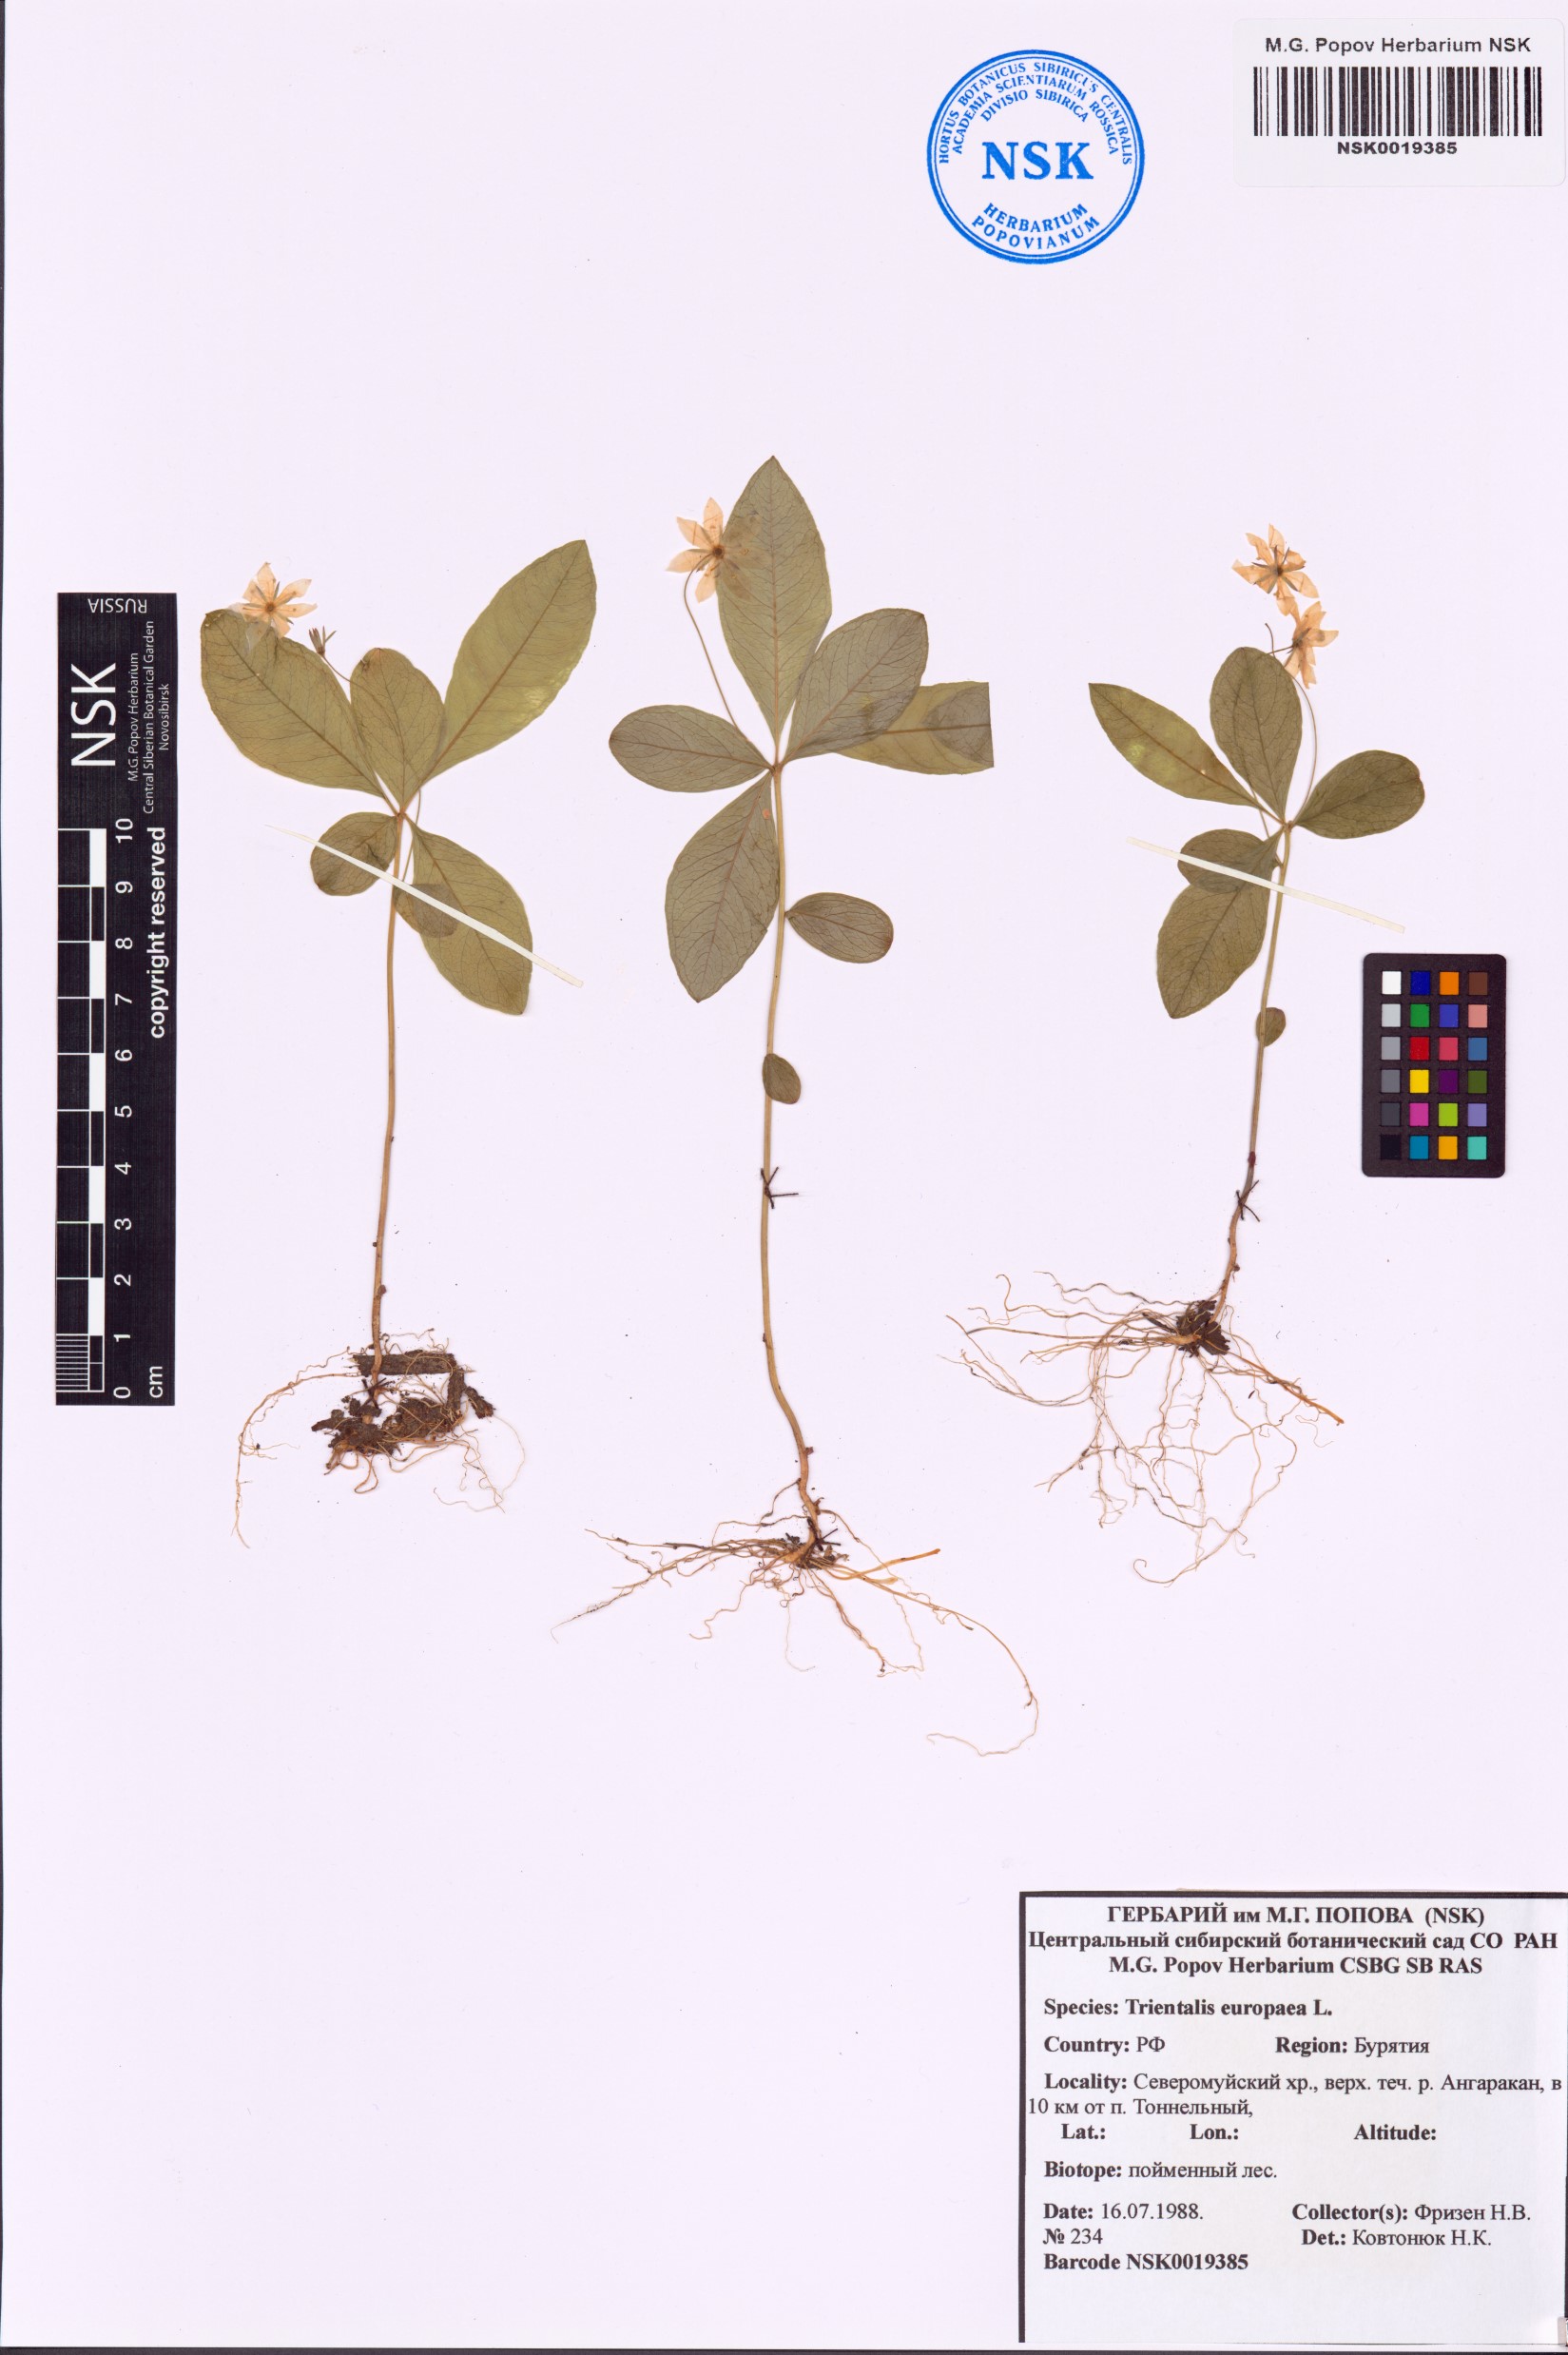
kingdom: Plantae
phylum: Tracheophyta
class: Magnoliopsida
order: Ericales
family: Primulaceae
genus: Lysimachia
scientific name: Lysimachia europaea
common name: Arctic starflower
